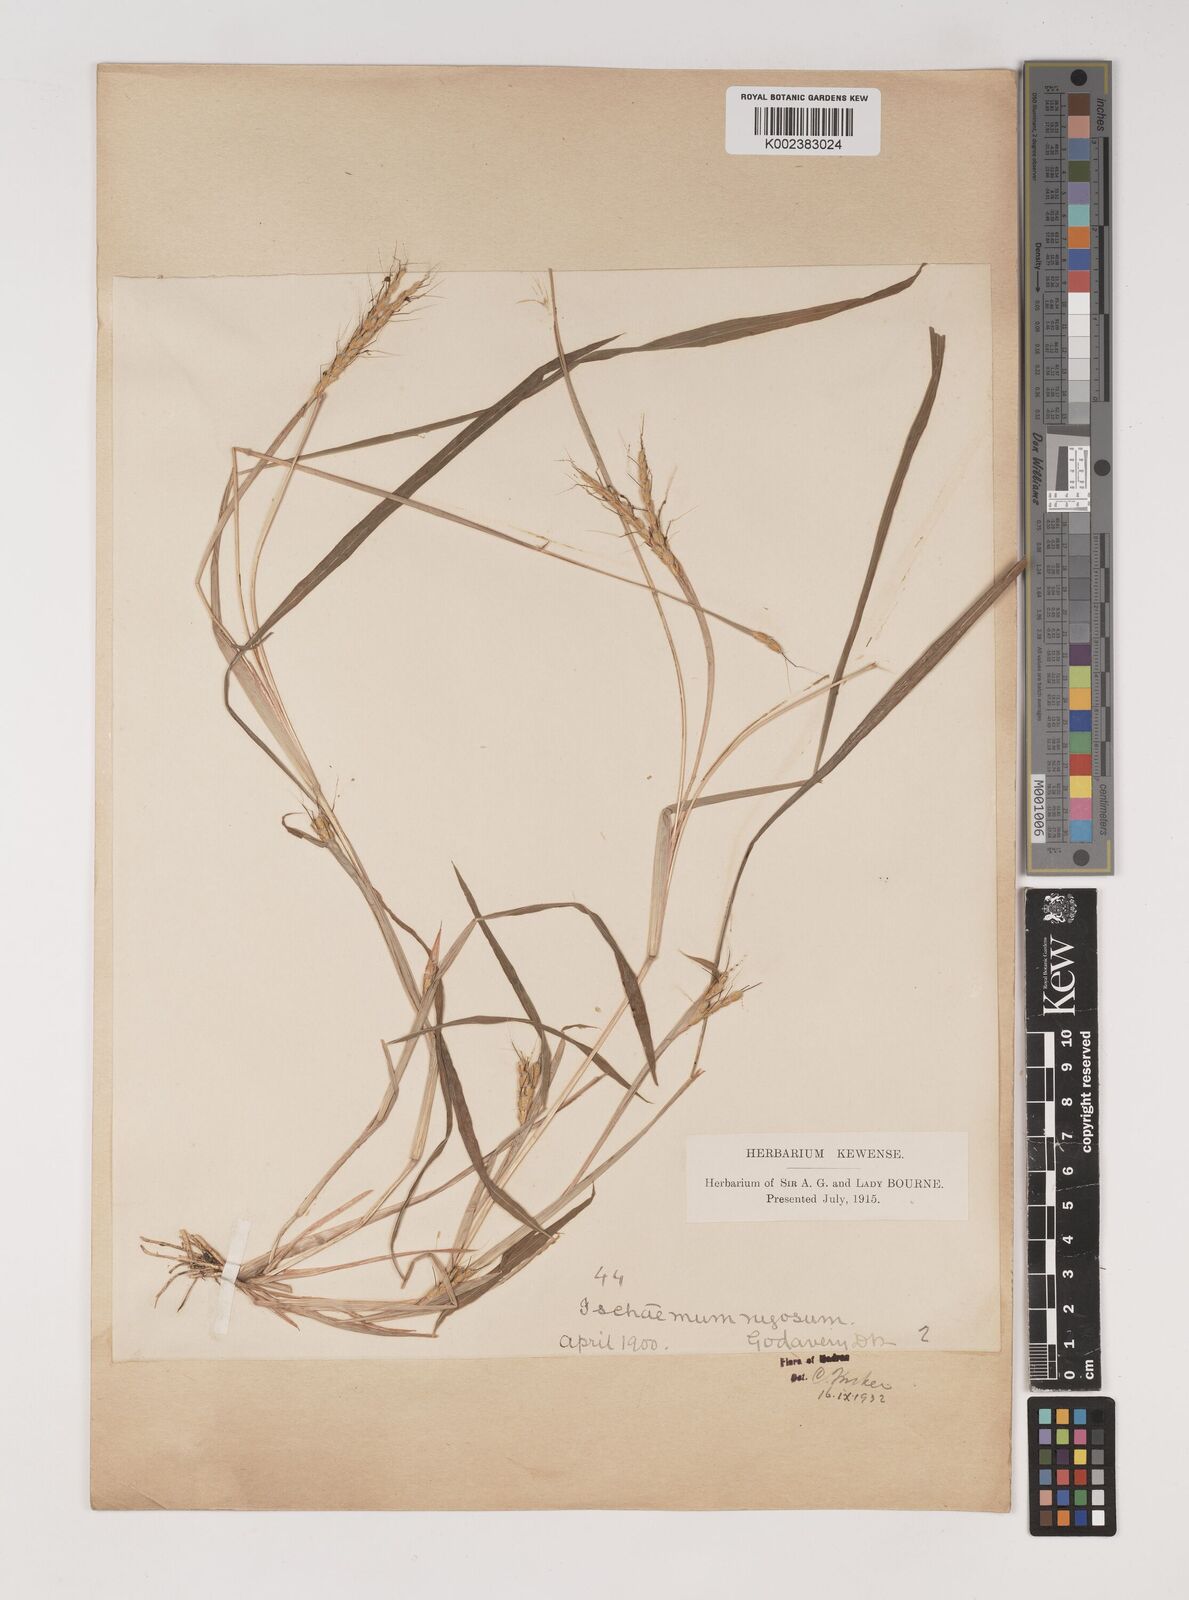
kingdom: Plantae
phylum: Tracheophyta
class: Liliopsida
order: Poales
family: Poaceae
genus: Ischaemum
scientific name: Ischaemum rugosum
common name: Saramatta grass
